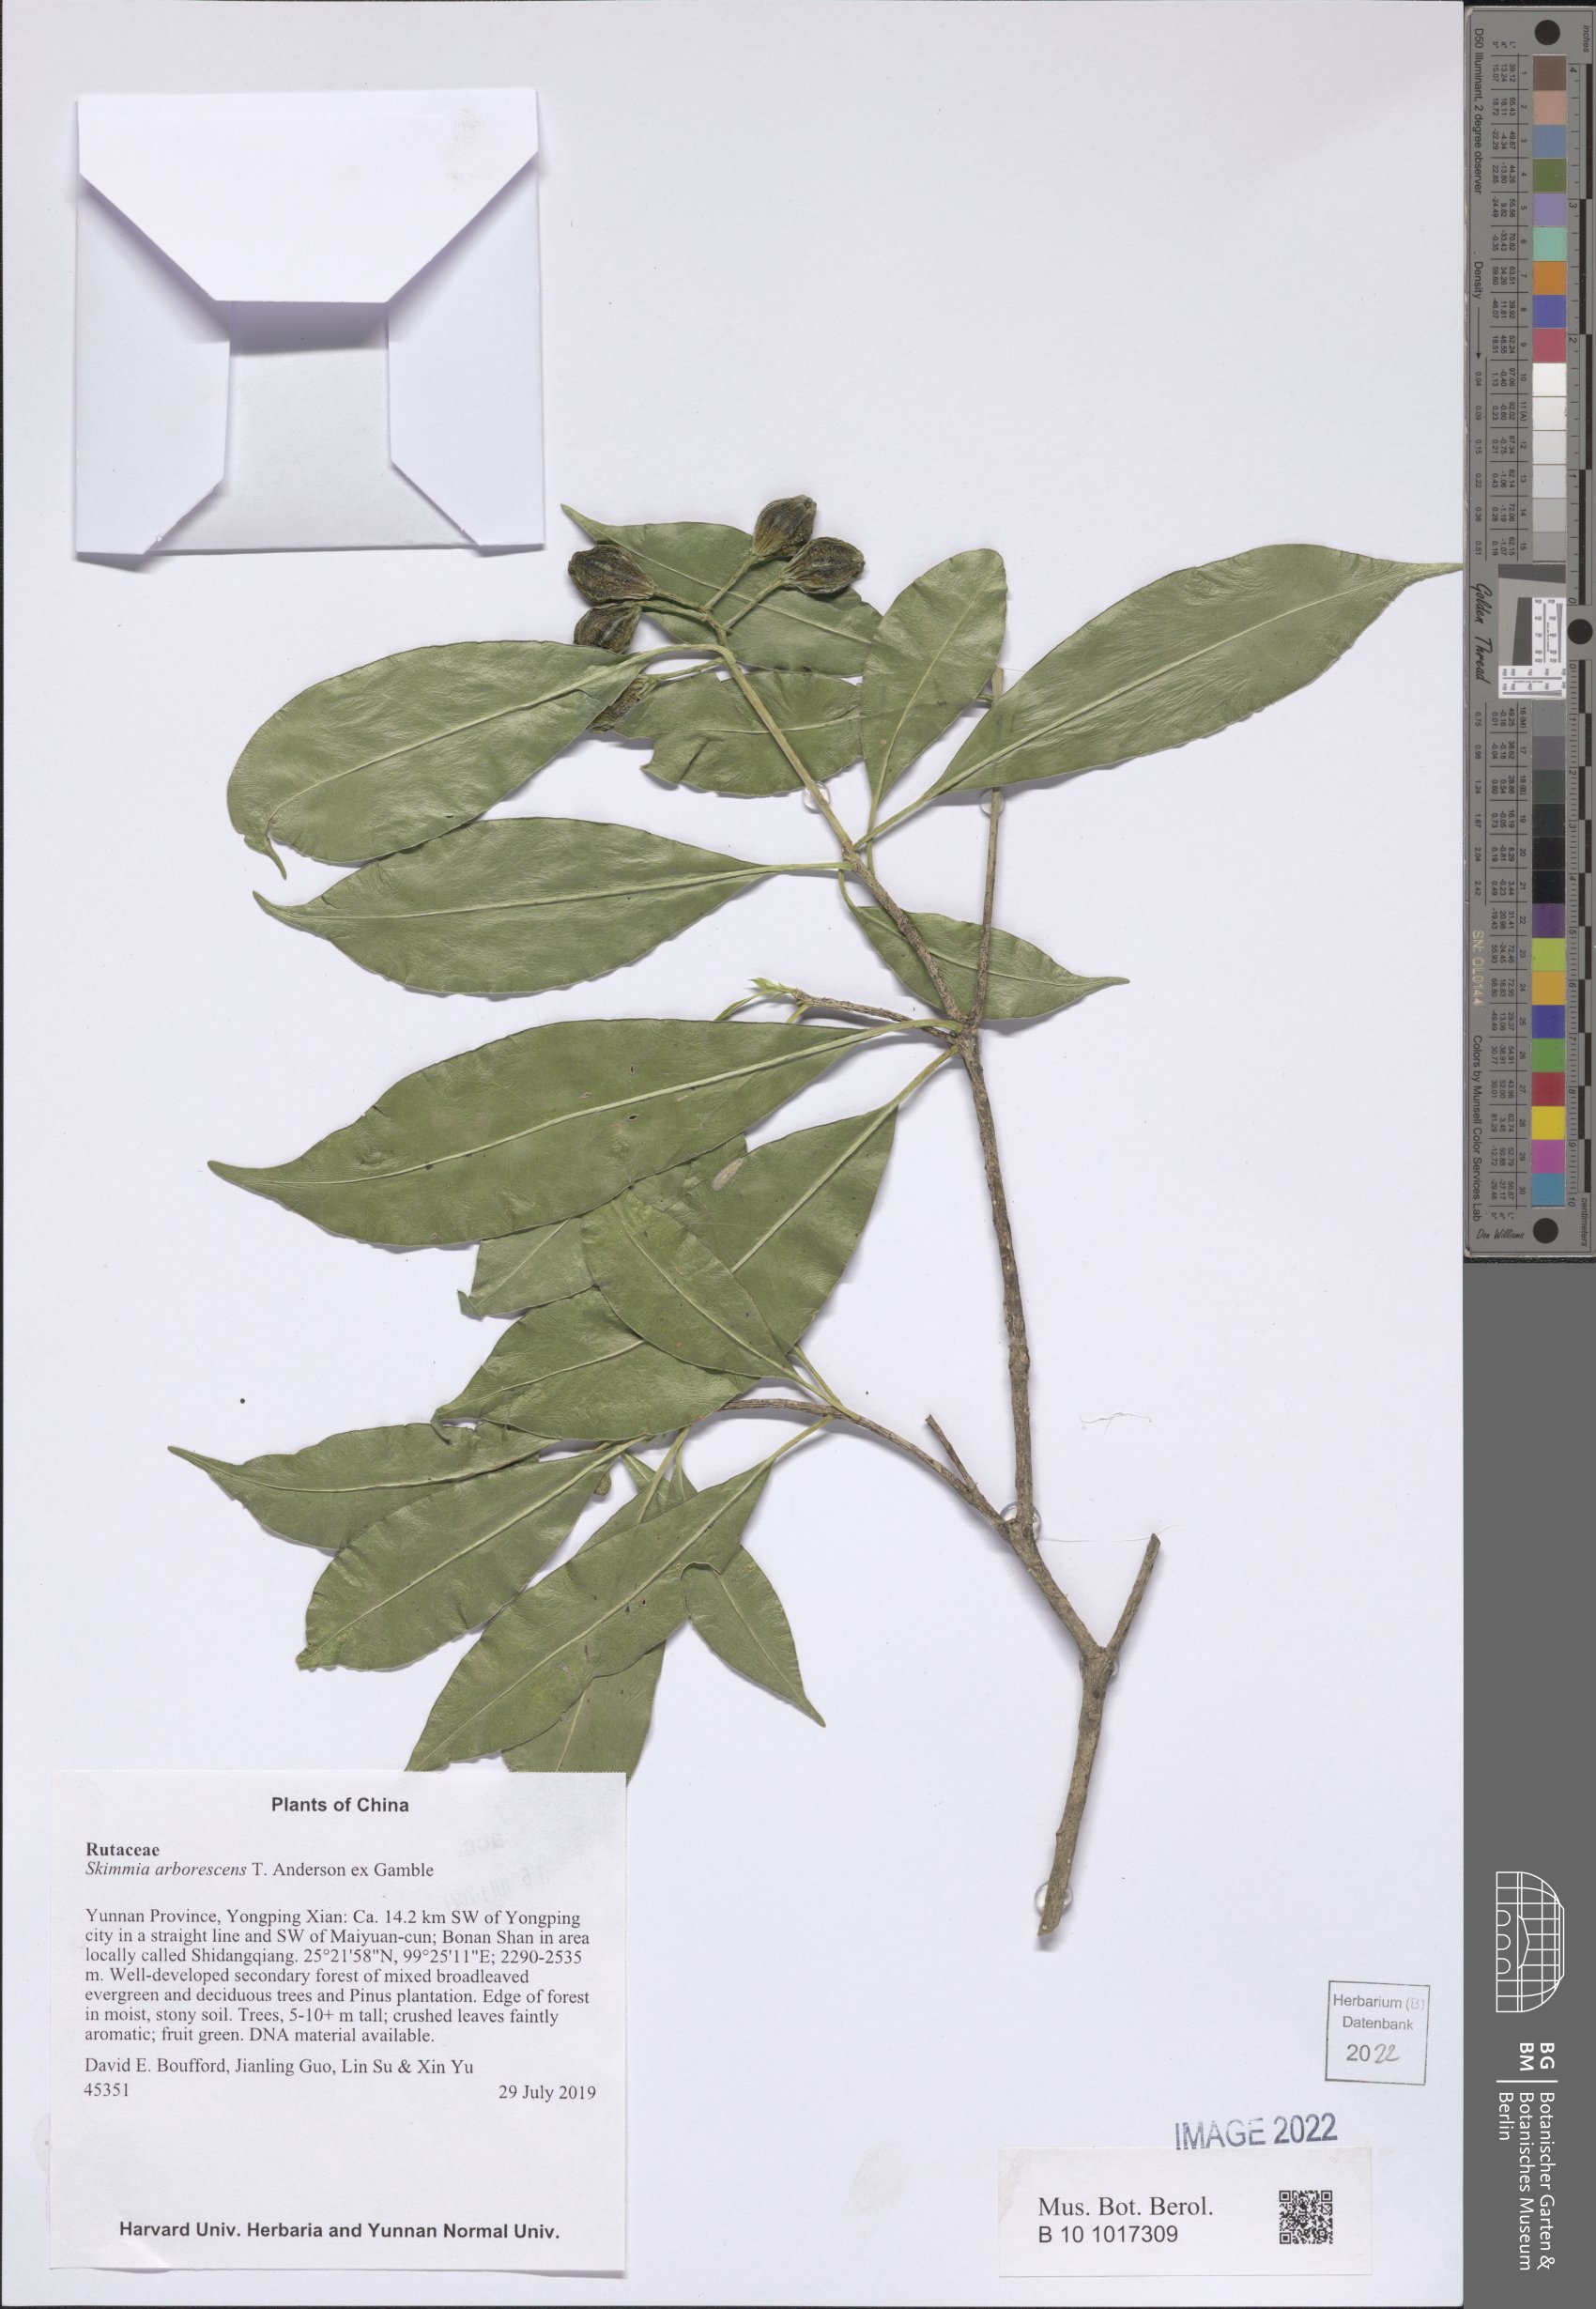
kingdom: Plantae
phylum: Tracheophyta
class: Magnoliopsida
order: Sapindales
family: Rutaceae
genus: Skimmia
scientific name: Skimmia arborescens
